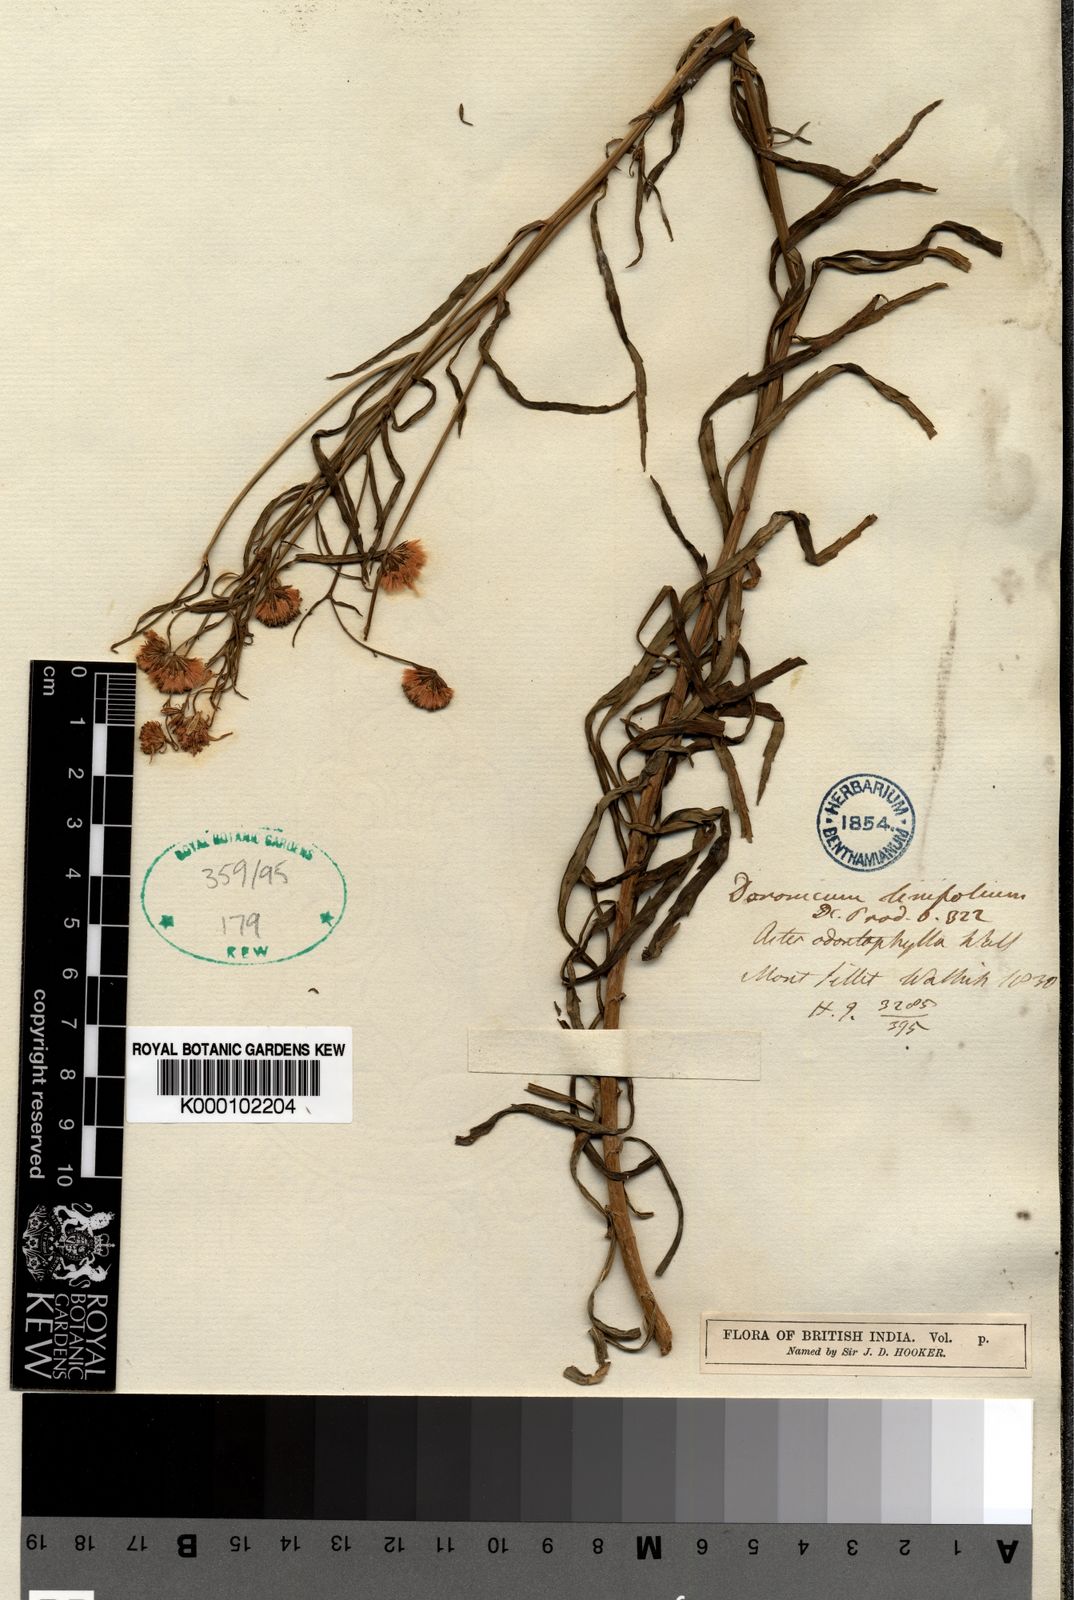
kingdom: Plantae
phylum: Tracheophyta
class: Magnoliopsida
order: Asterales
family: Asteraceae
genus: Senecio
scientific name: Senecio linifolius
